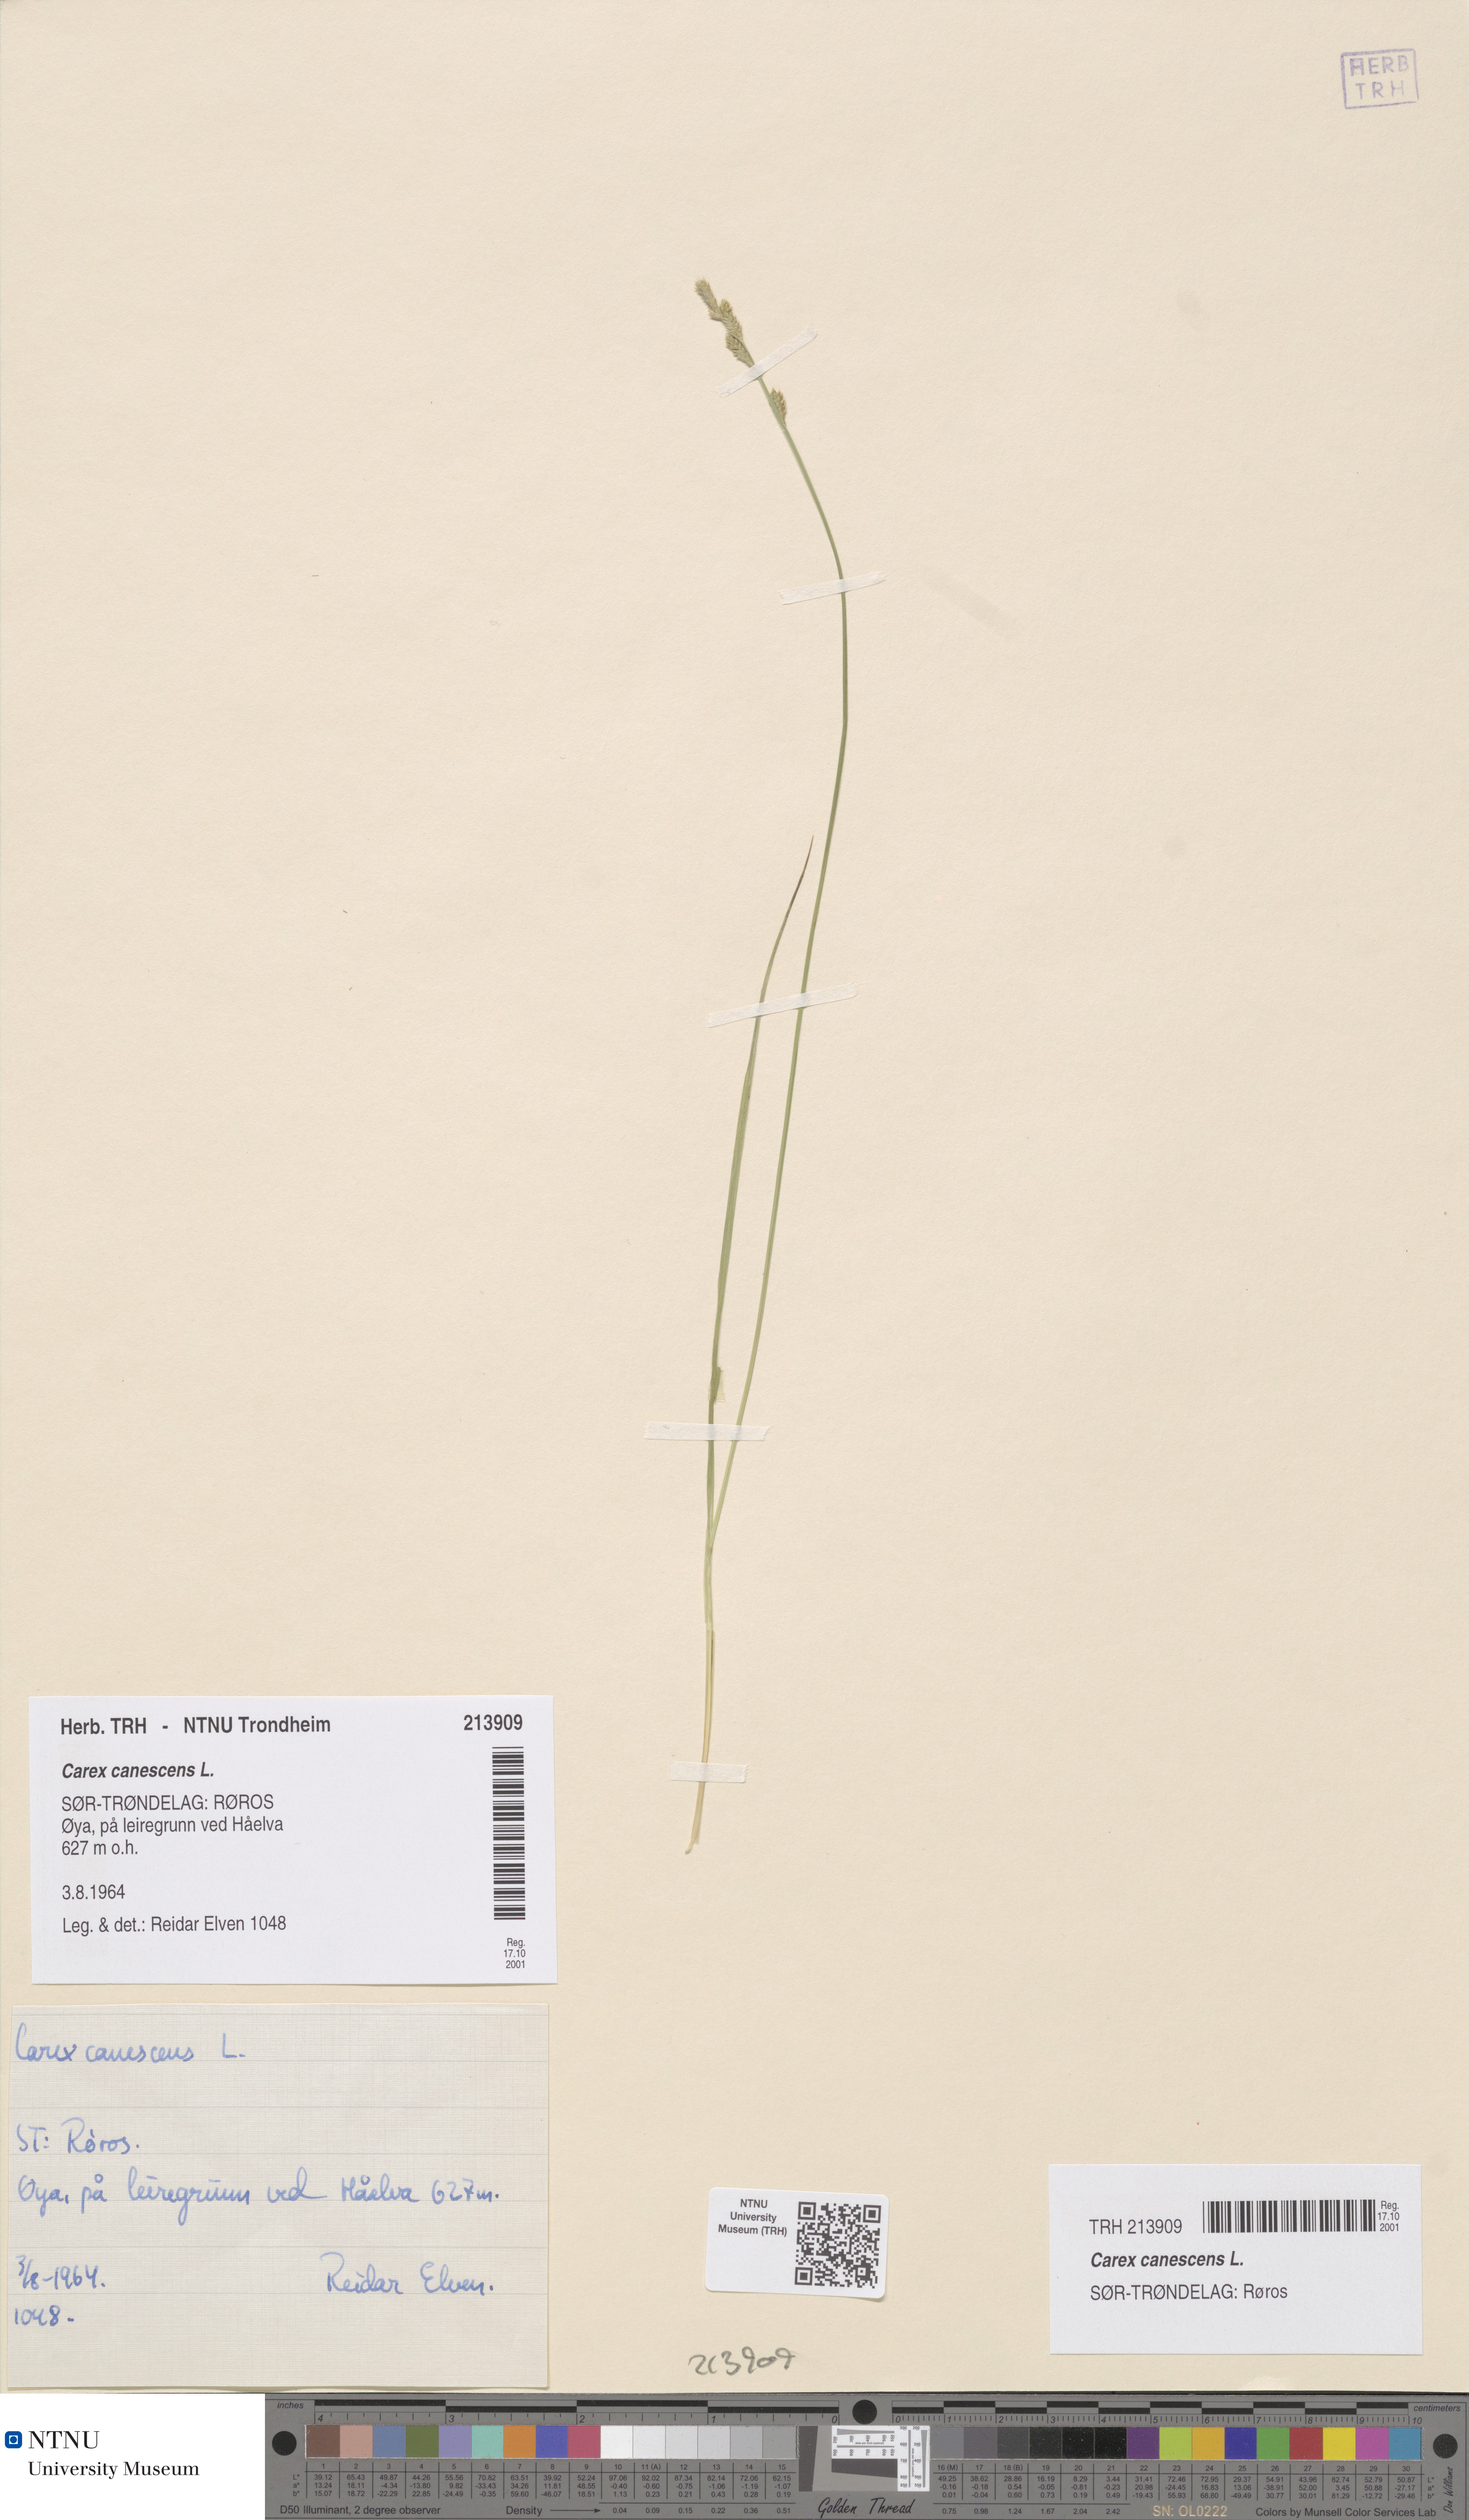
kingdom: Plantae
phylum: Tracheophyta
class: Liliopsida
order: Poales
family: Cyperaceae
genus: Carex
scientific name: Carex canescens
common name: White sedge
